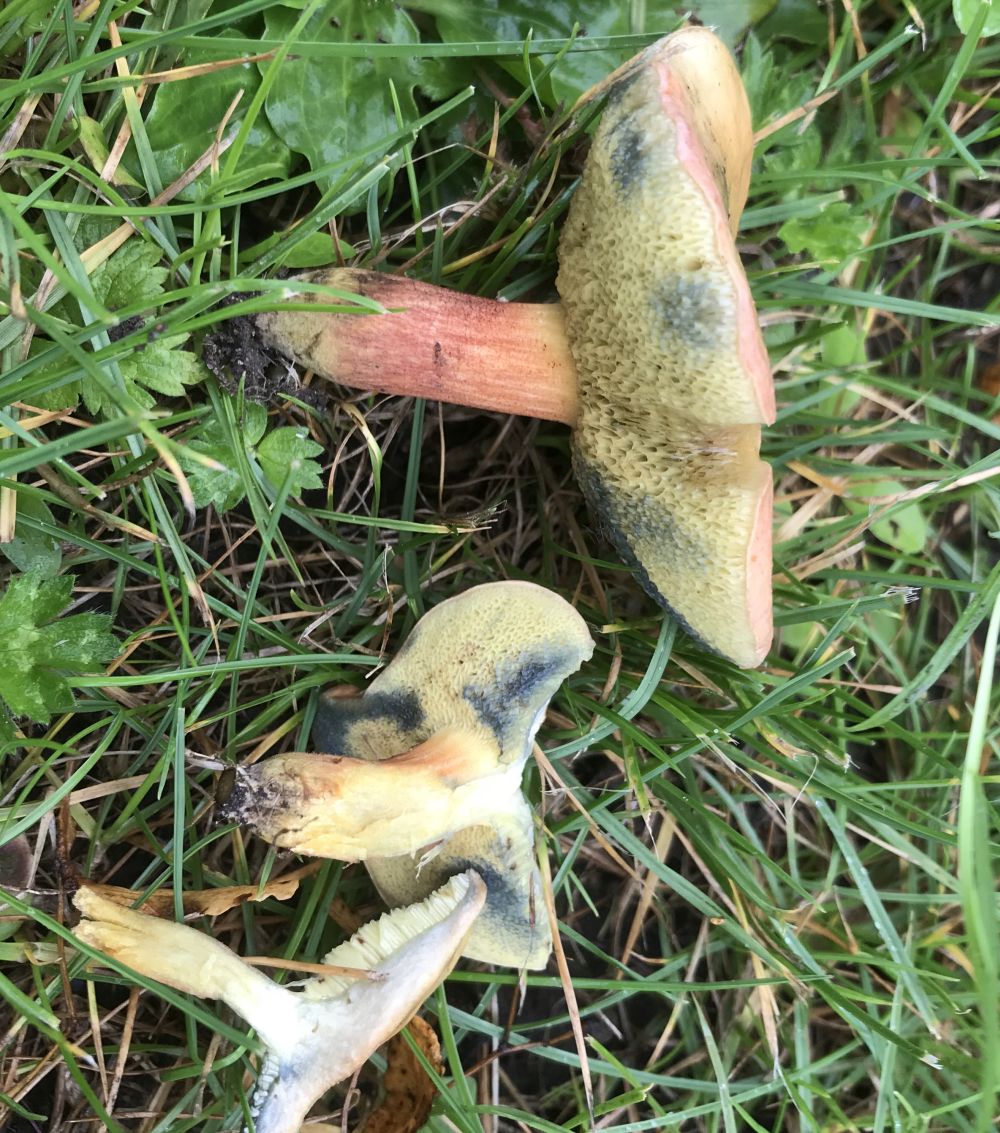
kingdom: Fungi
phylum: Basidiomycota
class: Agaricomycetes
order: Boletales
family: Boletaceae
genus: Hortiboletus
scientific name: Hortiboletus bubalinus
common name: aurora-rørhat
